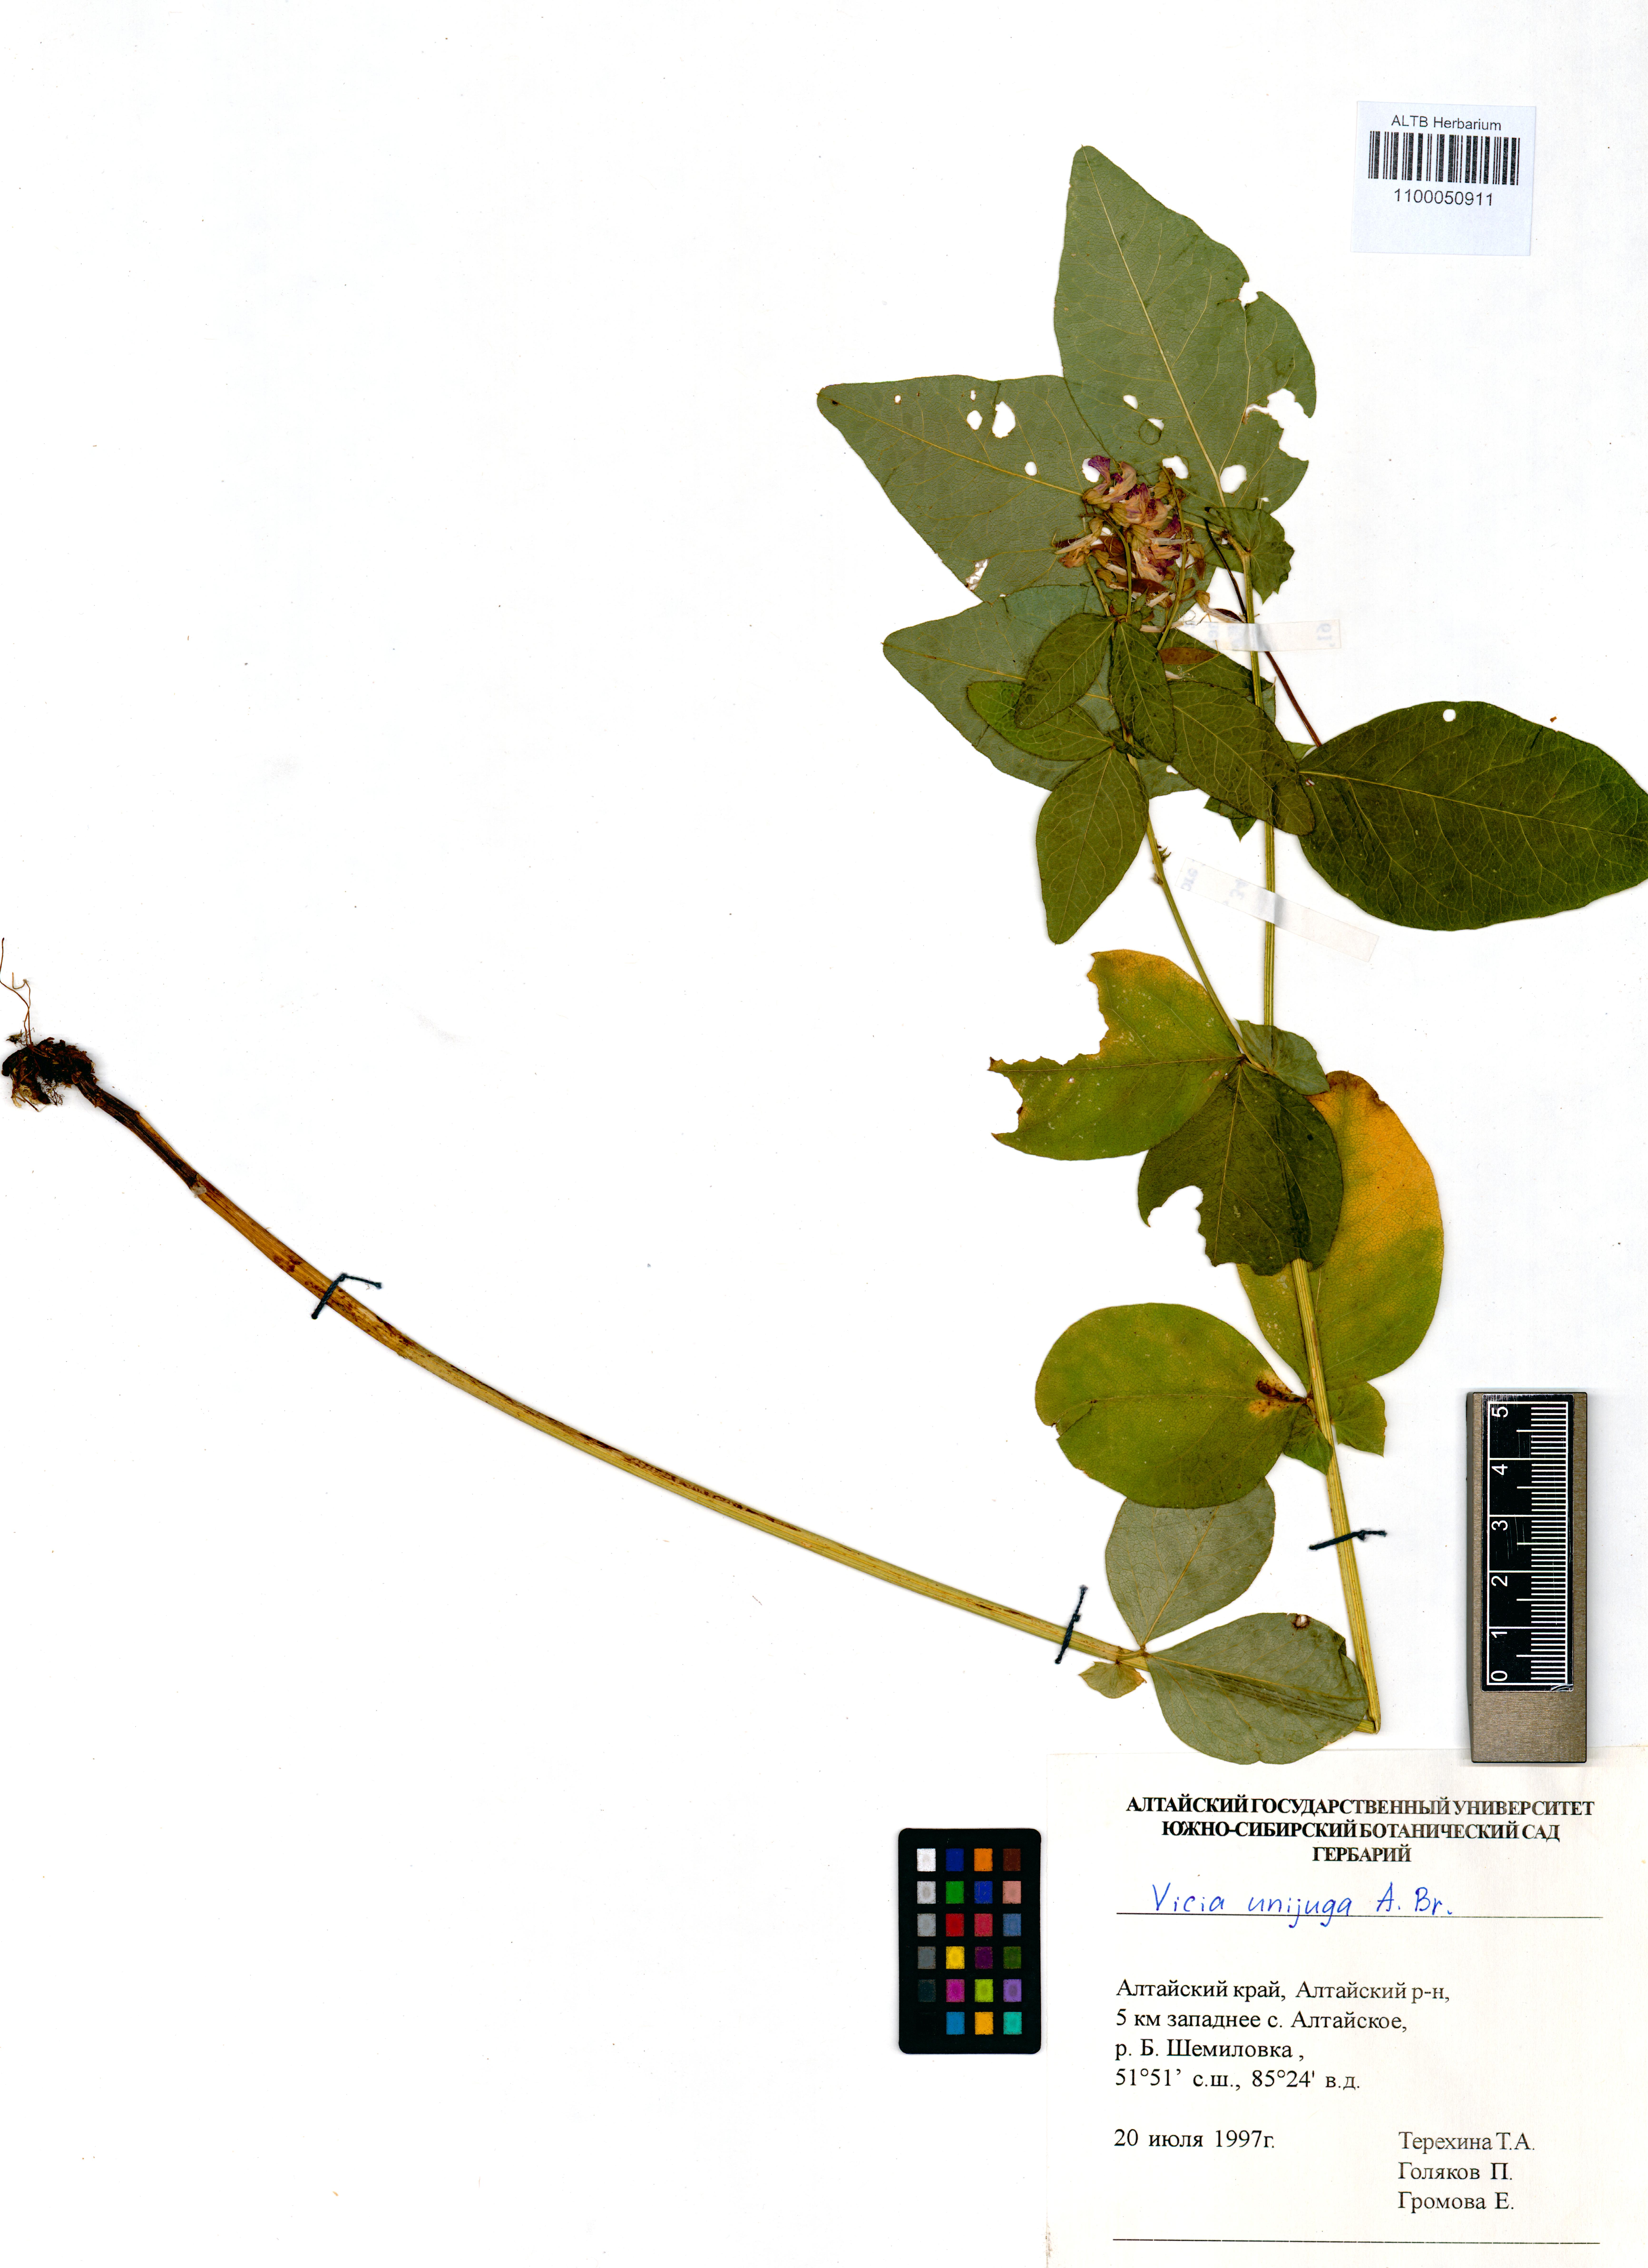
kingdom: Plantae
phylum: Tracheophyta
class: Magnoliopsida
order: Fabales
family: Fabaceae
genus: Vicia
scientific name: Vicia unijuga
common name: Two-leaf vetch
